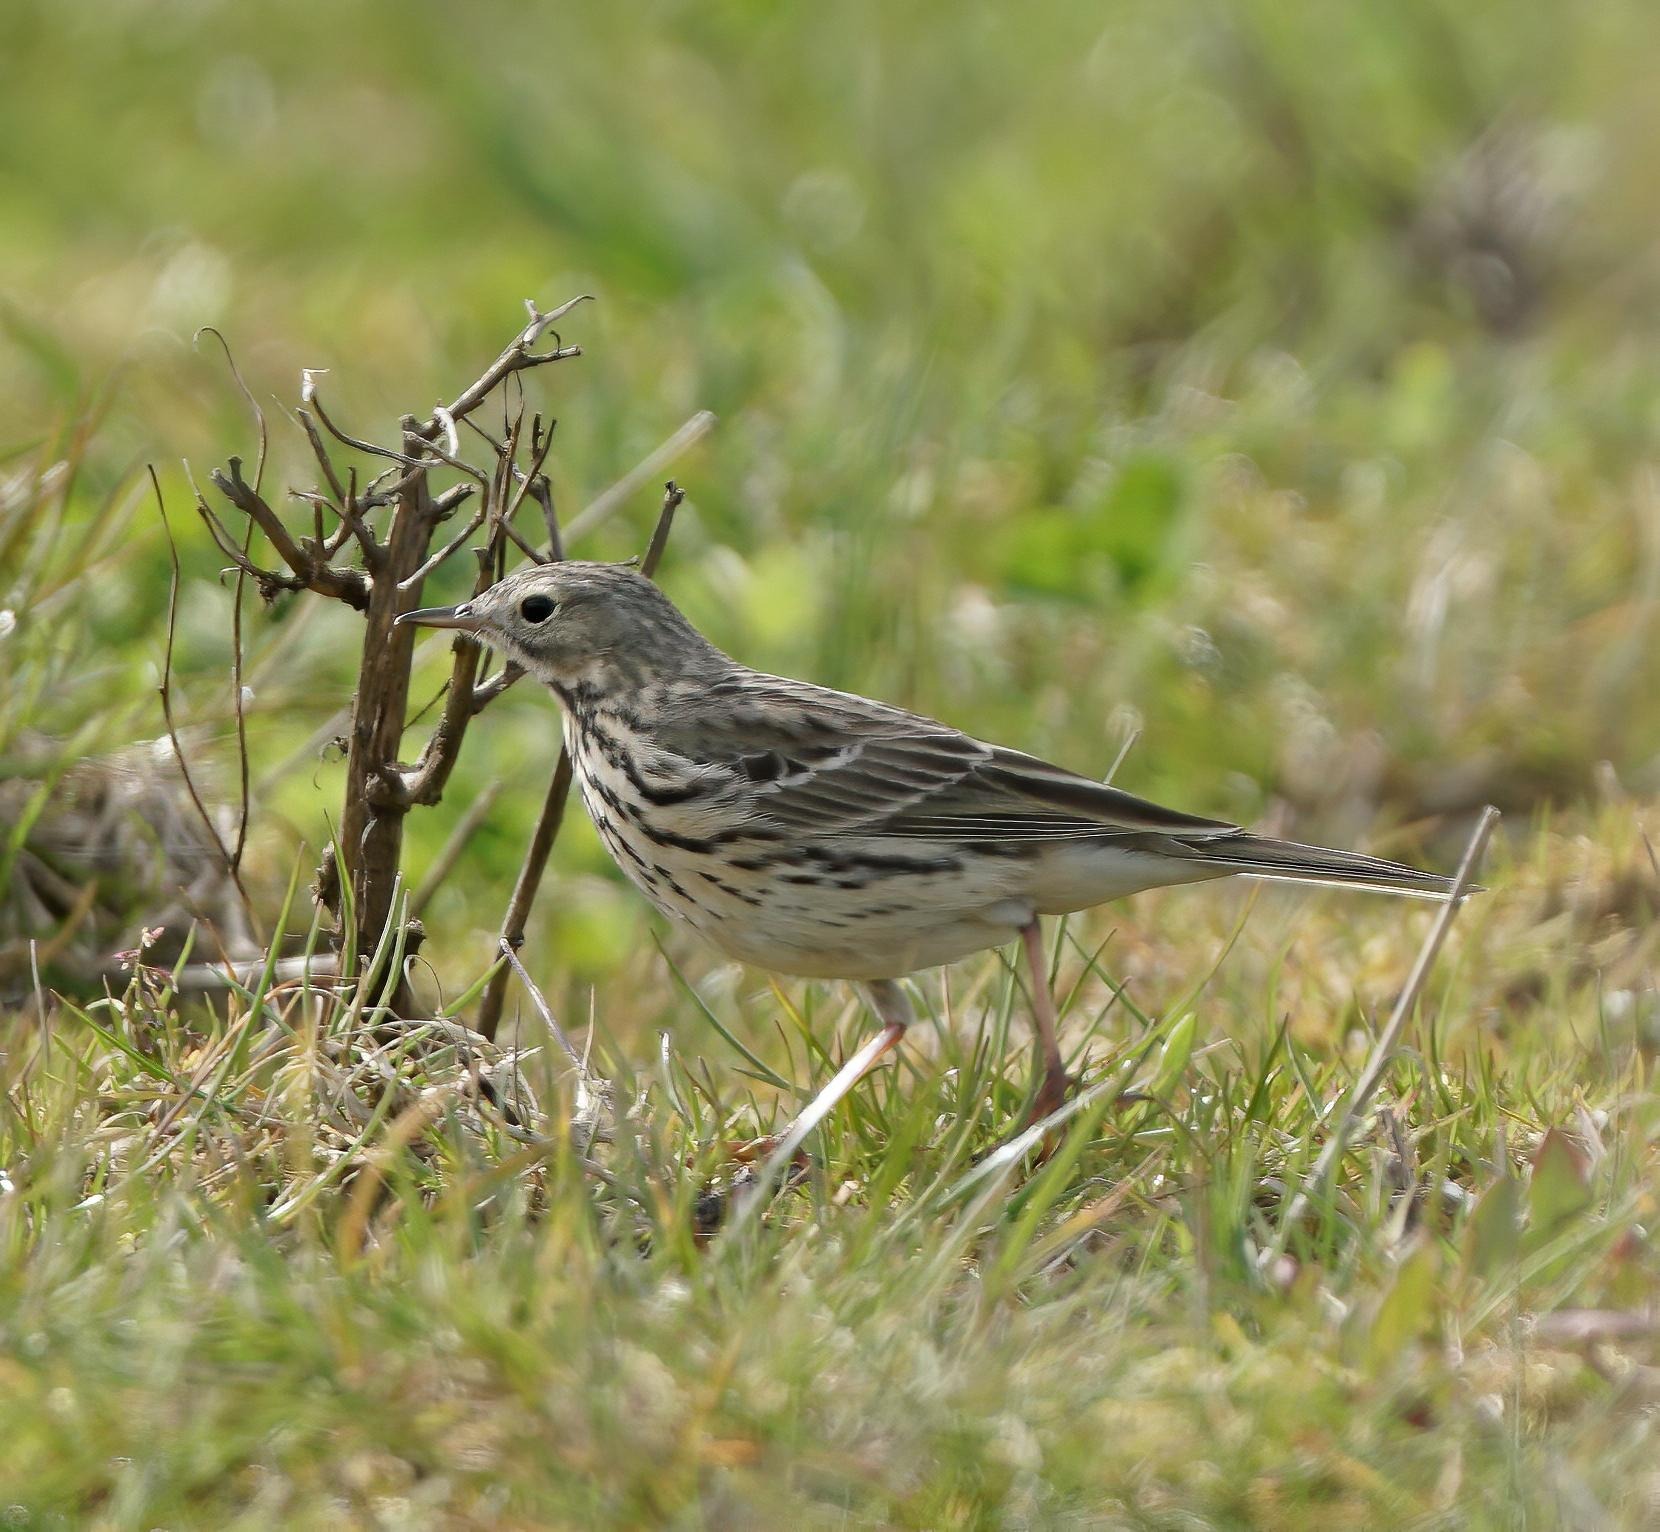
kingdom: Animalia
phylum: Chordata
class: Aves
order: Passeriformes
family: Motacillidae
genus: Anthus
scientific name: Anthus pratensis
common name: Engpiber
